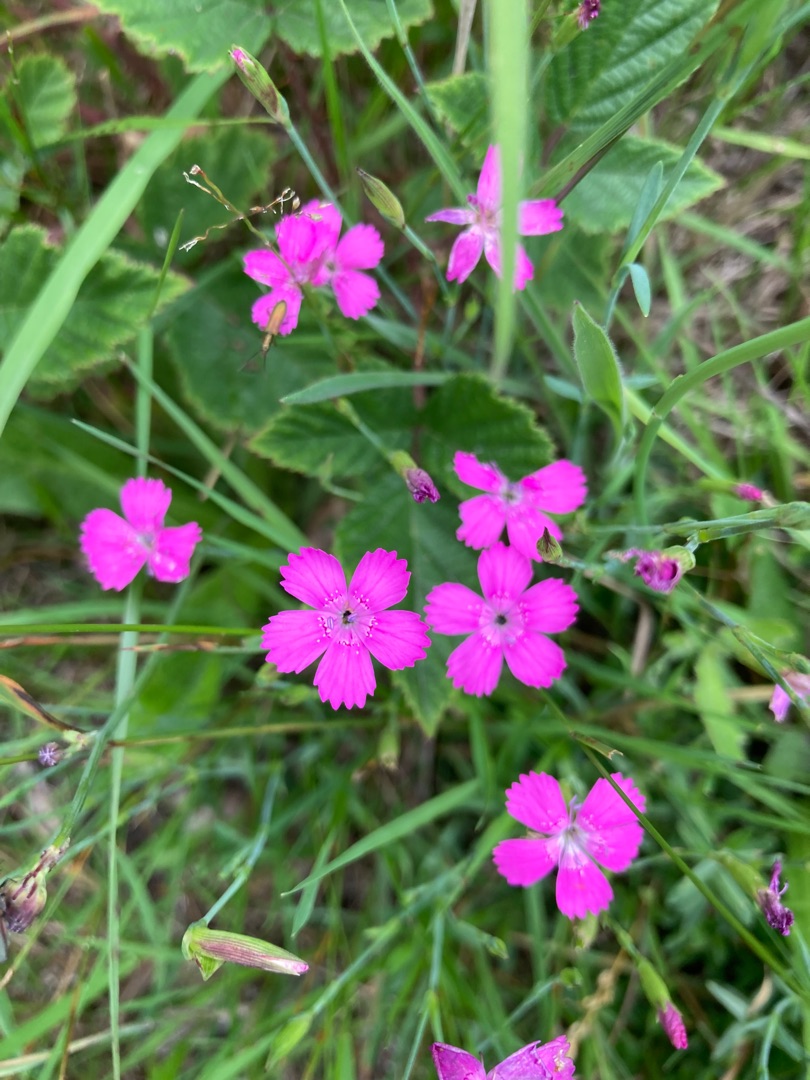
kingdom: Plantae
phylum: Tracheophyta
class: Magnoliopsida
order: Caryophyllales
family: Caryophyllaceae
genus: Dianthus
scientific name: Dianthus deltoides
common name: Bakke-nellike
